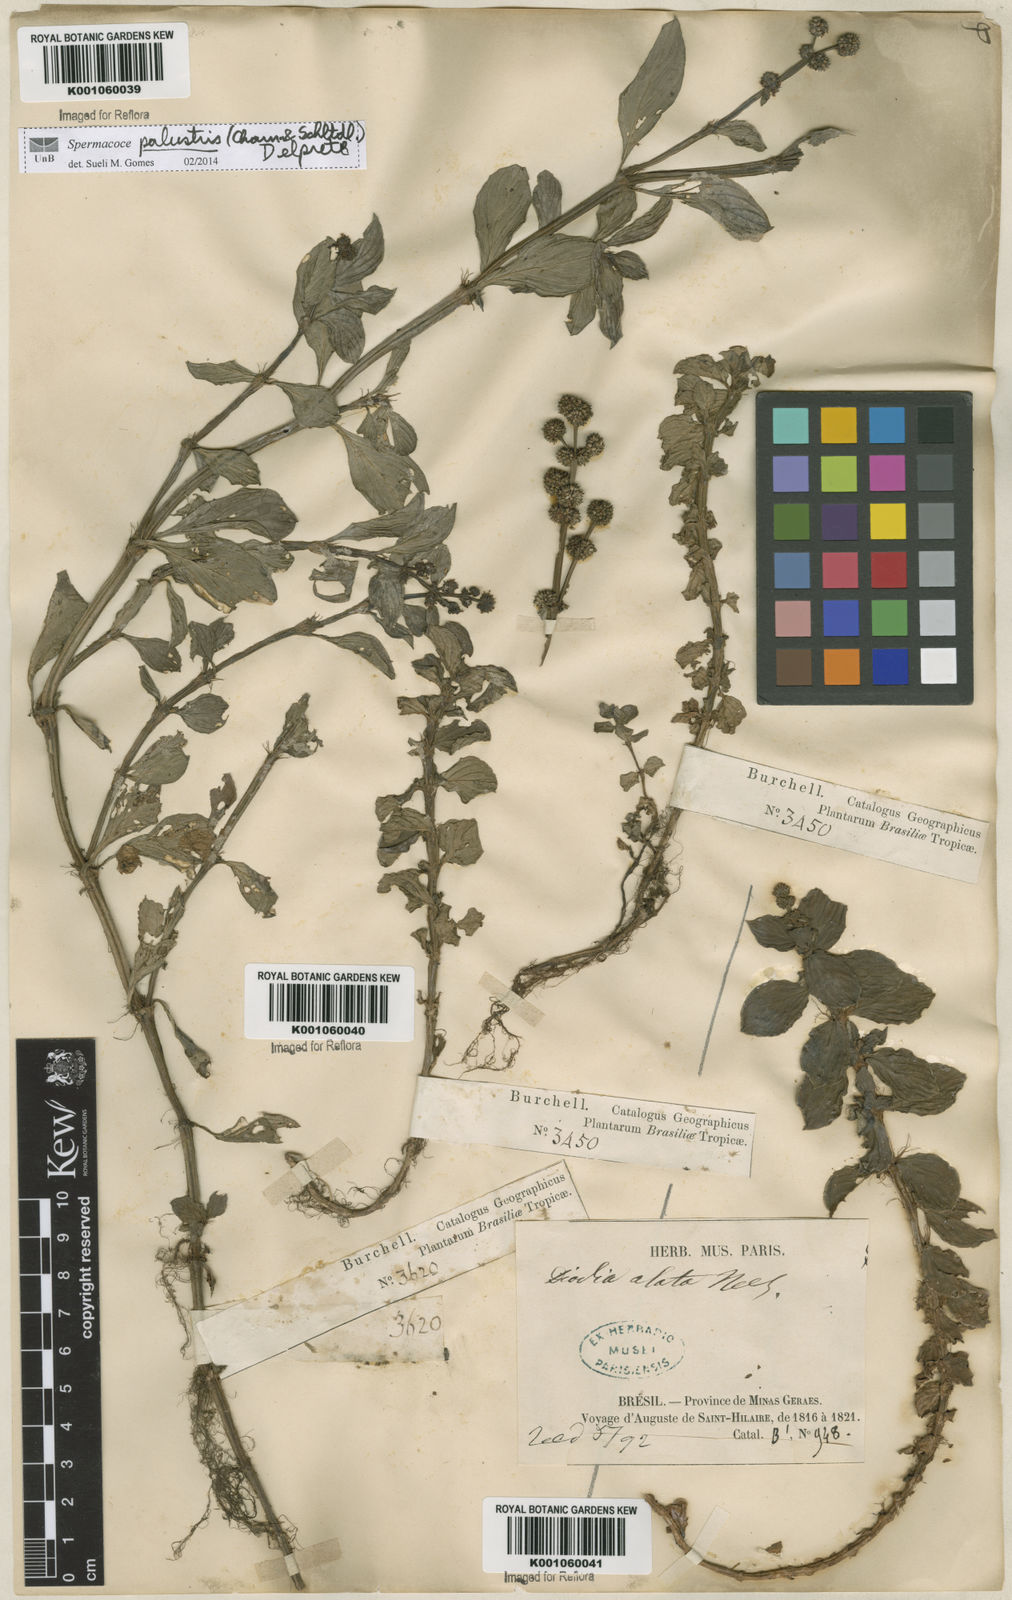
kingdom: Plantae
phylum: Tracheophyta
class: Magnoliopsida
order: Gentianales
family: Rubiaceae
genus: Galianthe
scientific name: Galianthe palustris
